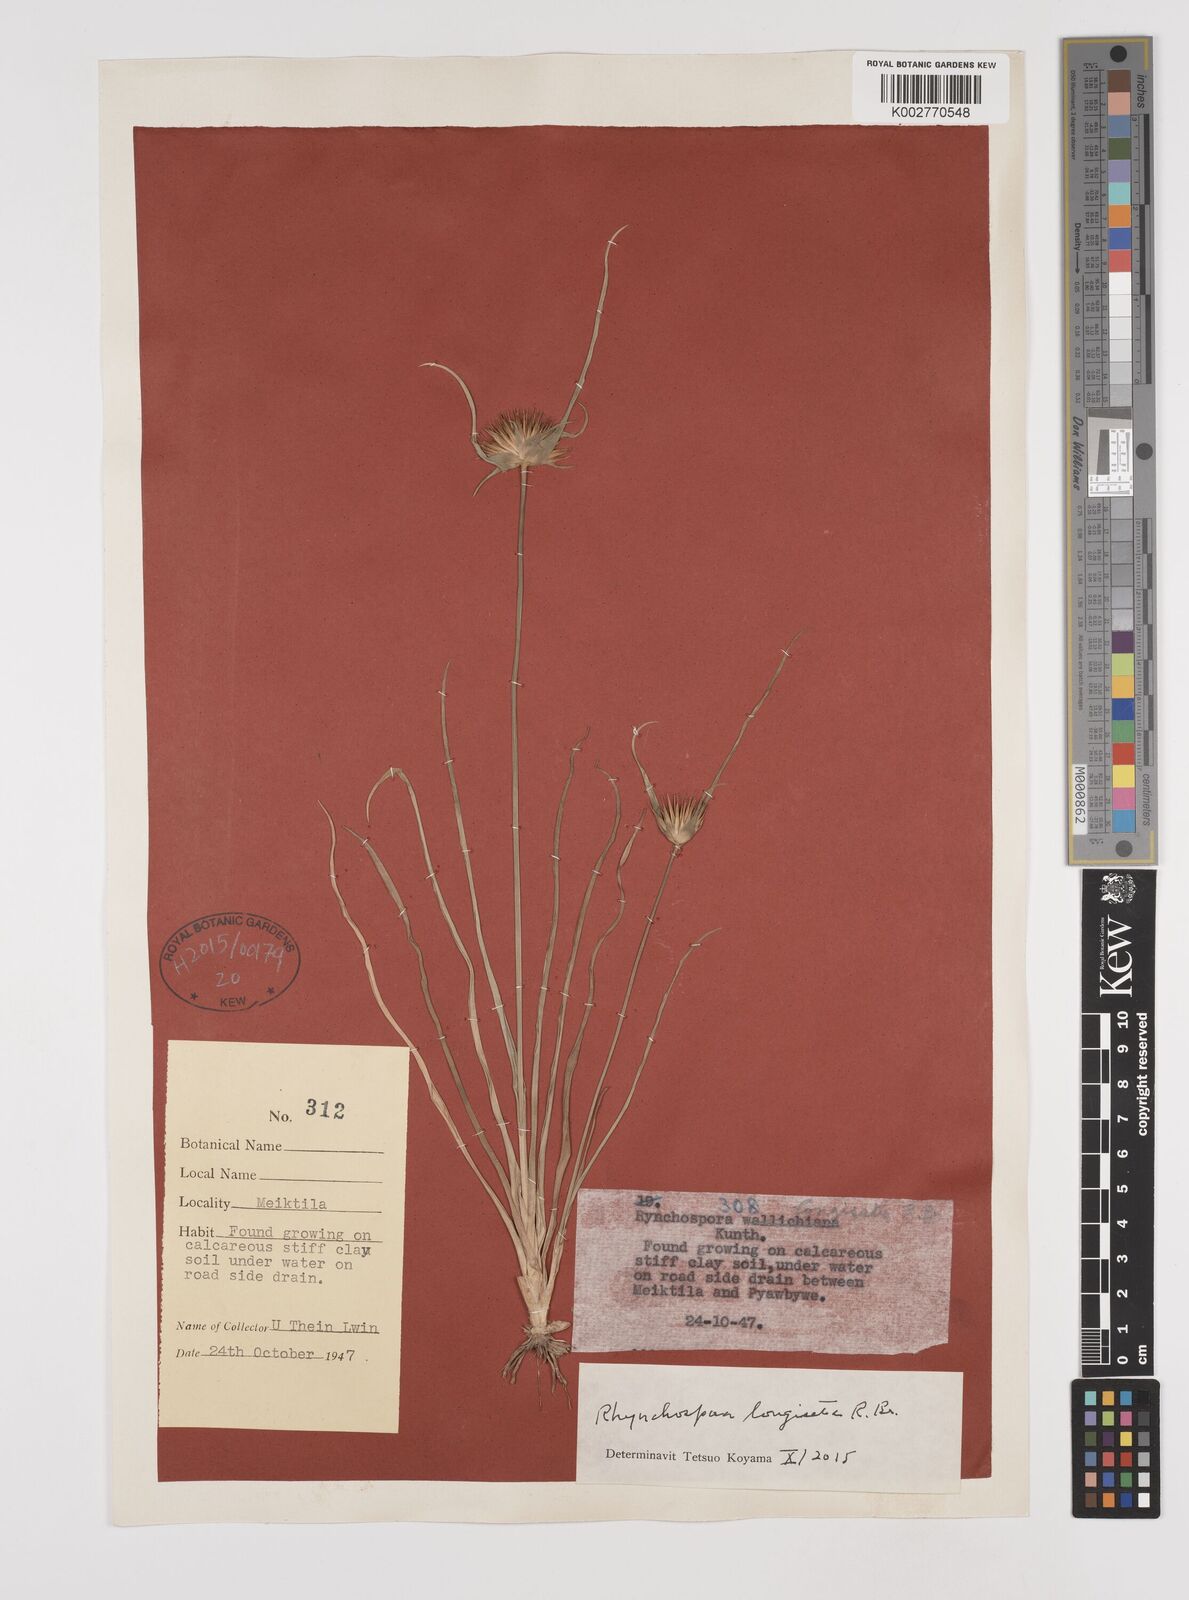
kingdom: Plantae
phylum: Tracheophyta
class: Liliopsida
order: Poales
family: Cyperaceae
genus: Rhynchospora
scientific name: Rhynchospora longisetis
